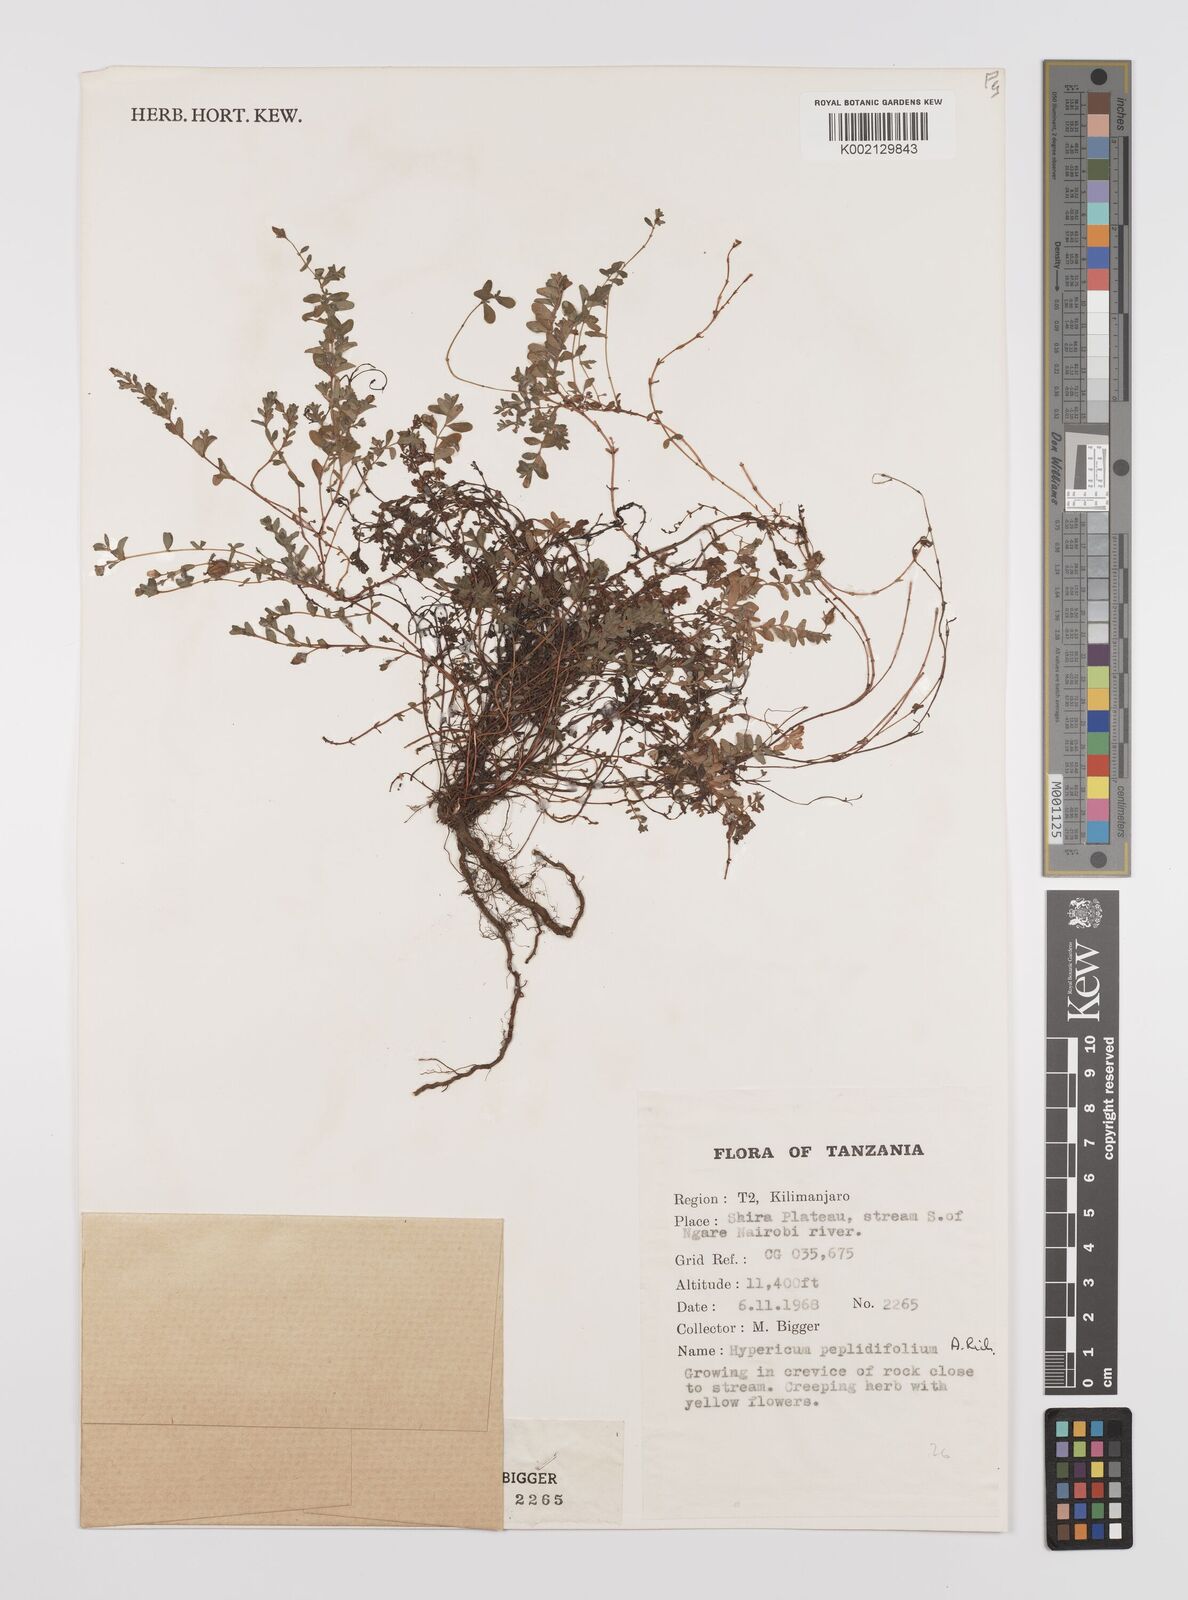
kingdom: Plantae
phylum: Tracheophyta
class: Magnoliopsida
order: Malpighiales
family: Hypericaceae
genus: Hypericum
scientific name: Hypericum peplidifolium
